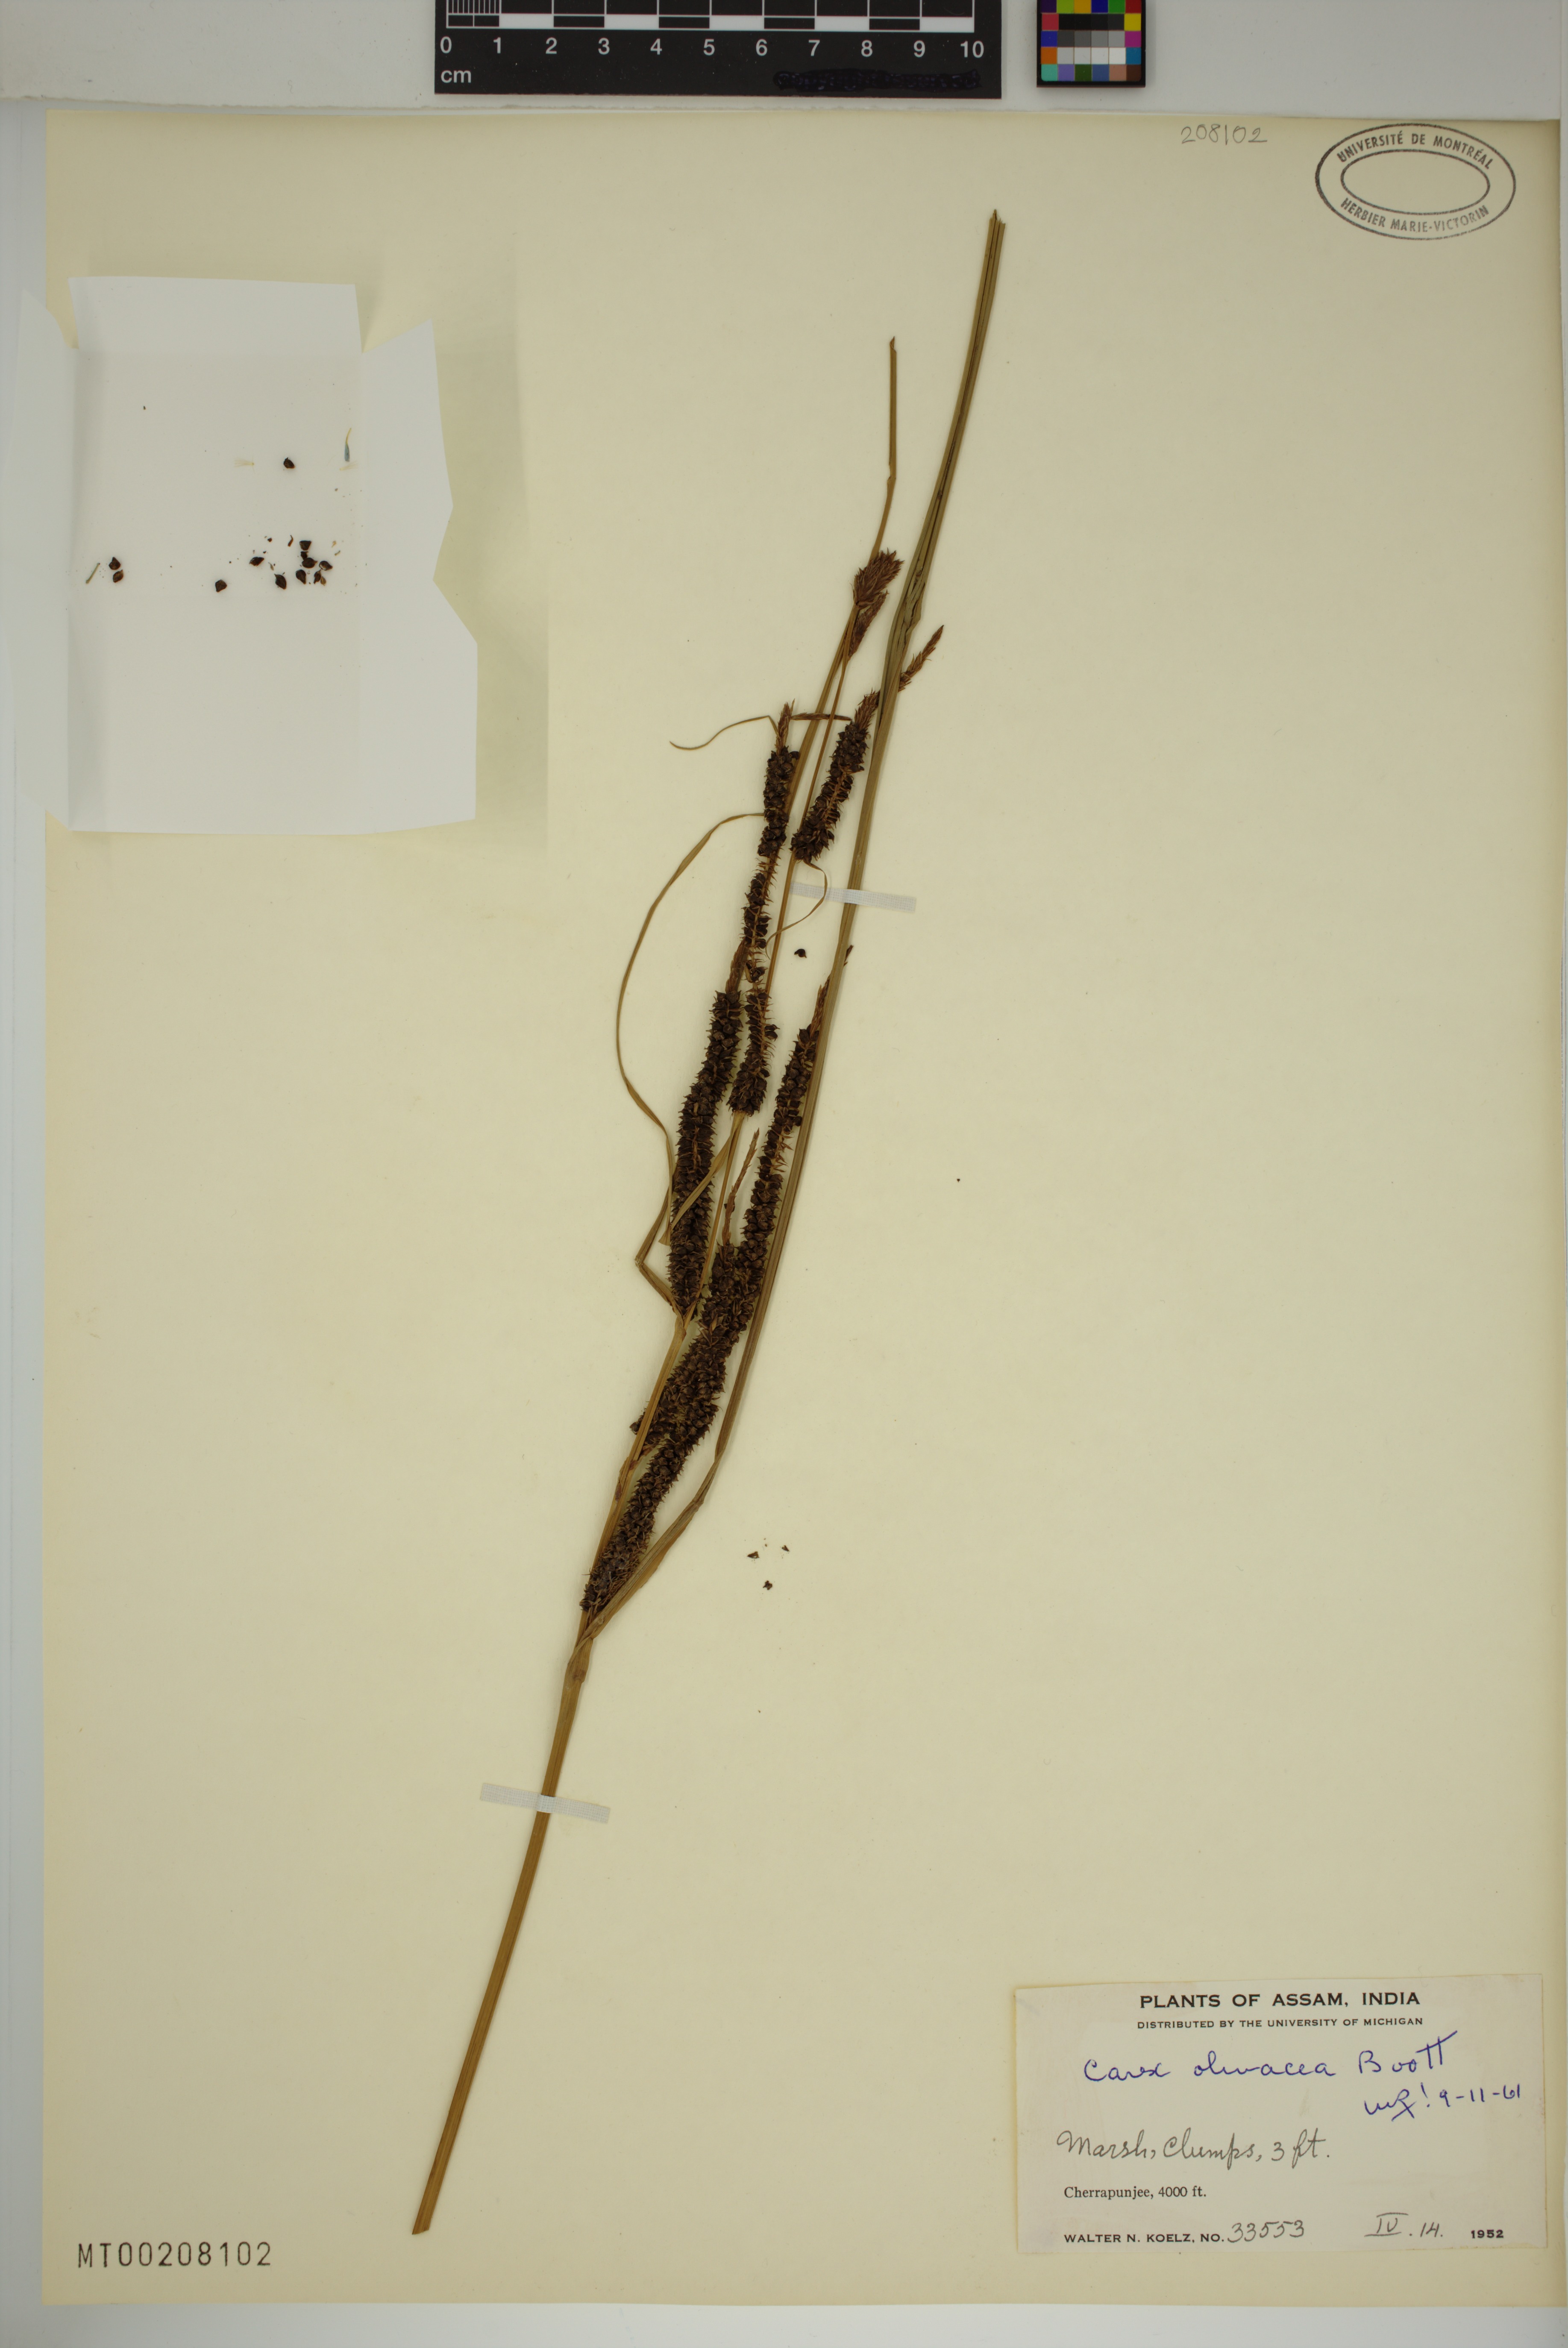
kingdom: Plantae
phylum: Tracheophyta
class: Liliopsida
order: Poales
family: Cyperaceae
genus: Carex
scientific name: Carex olivacea
